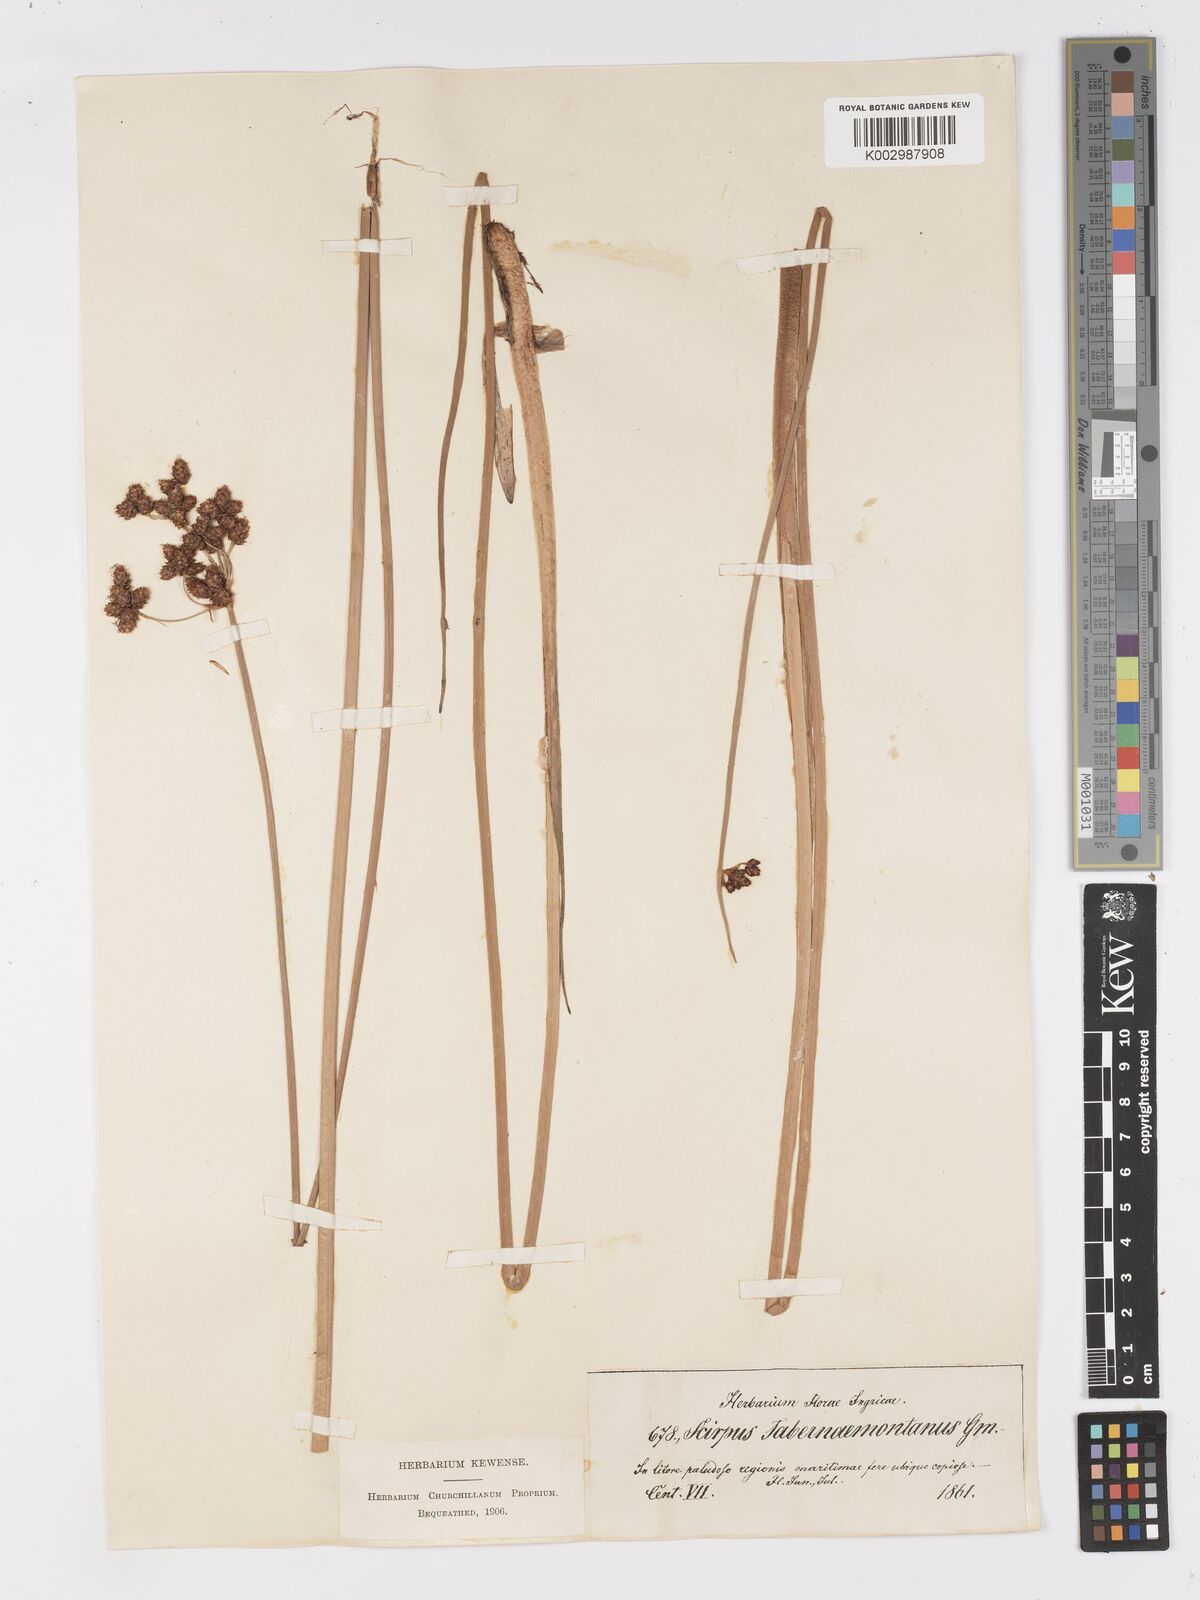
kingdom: Plantae
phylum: Tracheophyta
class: Liliopsida
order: Poales
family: Cyperaceae
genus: Schoenoplectus
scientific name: Schoenoplectus tabernaemontani
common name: Grey club-rush
